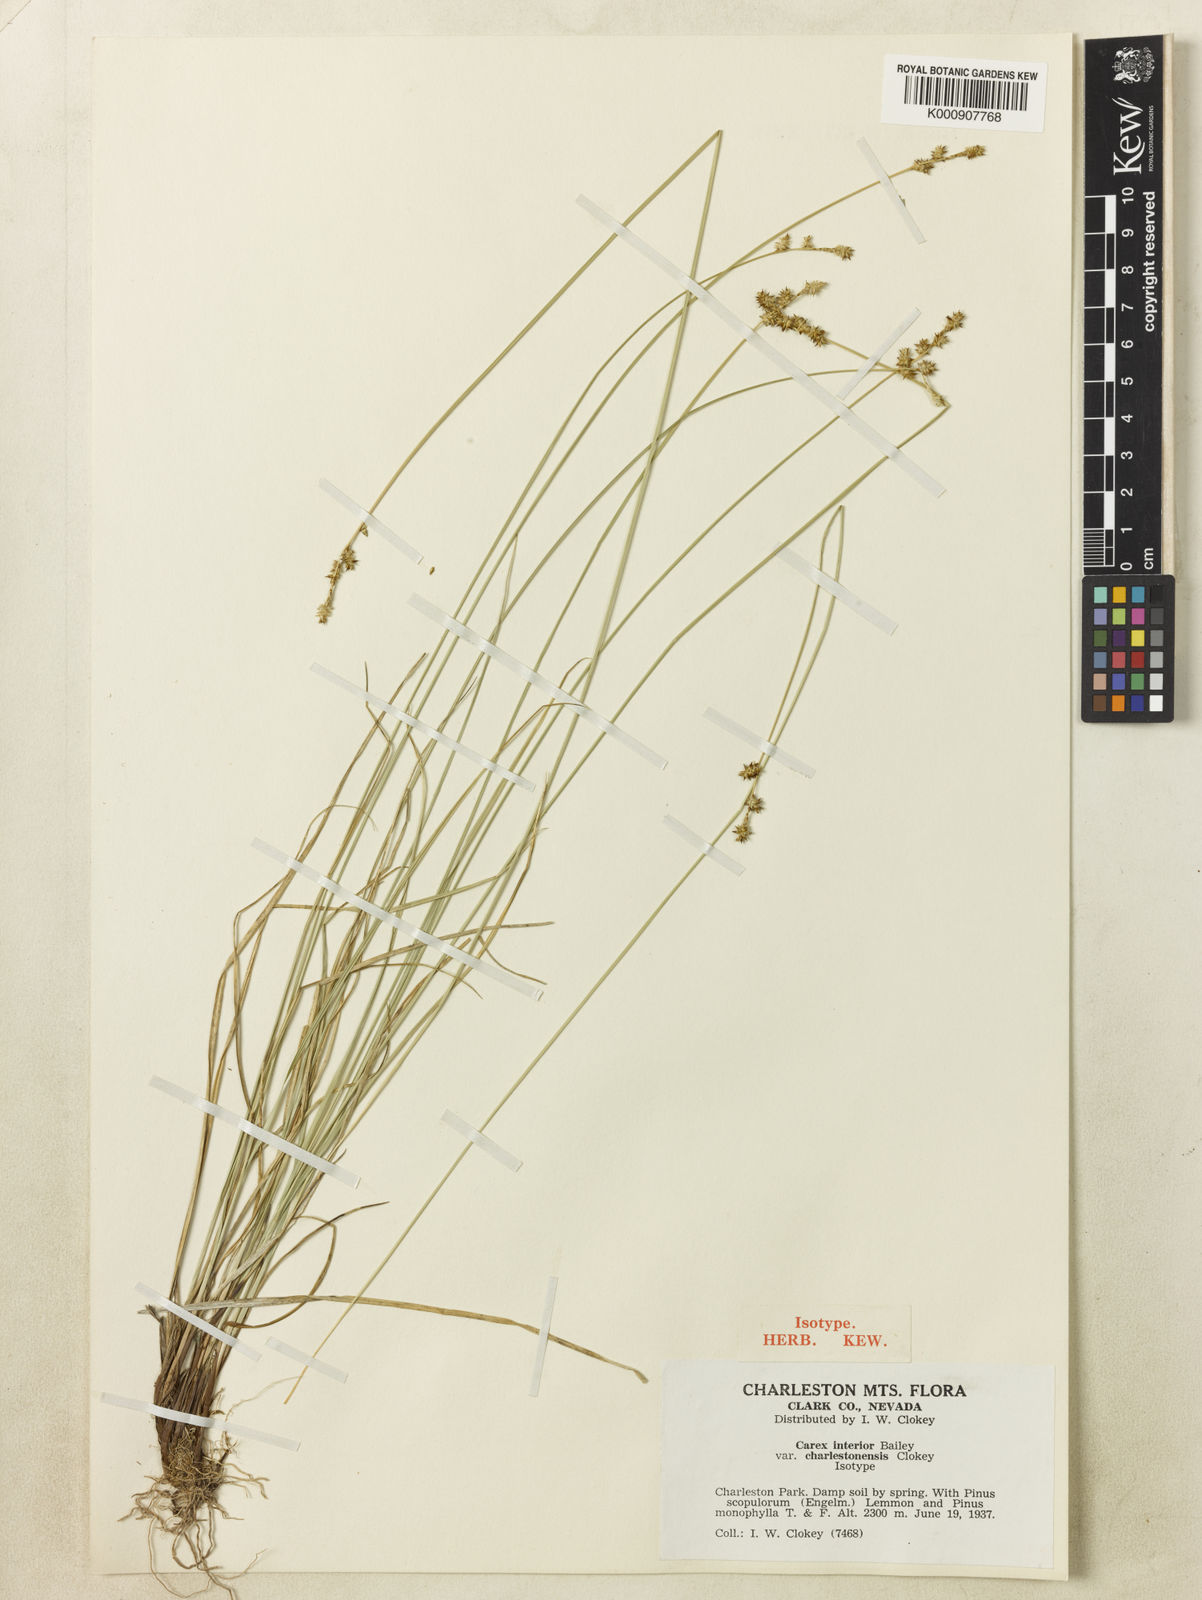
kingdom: Plantae
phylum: Tracheophyta
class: Liliopsida
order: Poales
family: Cyperaceae
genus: Carex
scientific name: Carex interior
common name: Inland sedge
